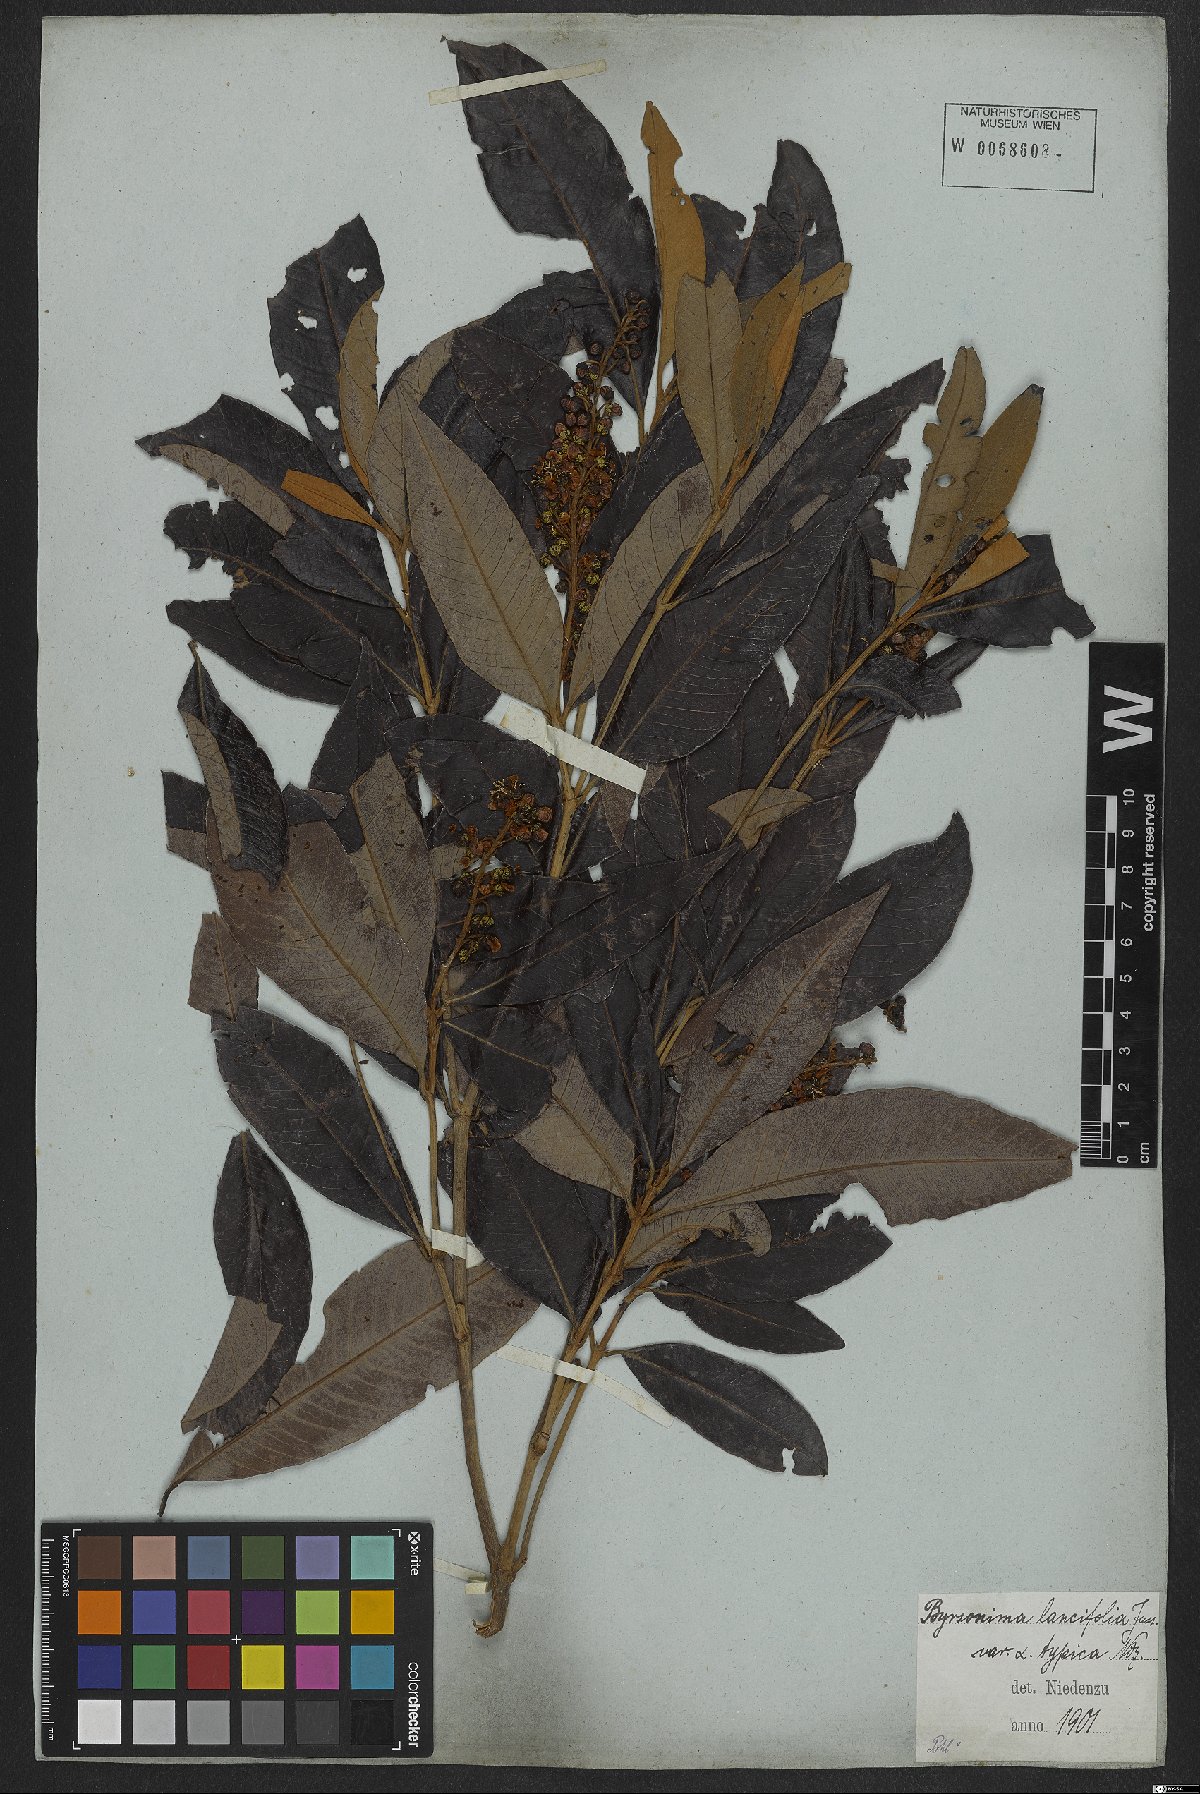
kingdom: Plantae
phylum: Tracheophyta
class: Magnoliopsida
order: Malpighiales
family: Malpighiaceae
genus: Byrsonima
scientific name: Byrsonima lancifolia
